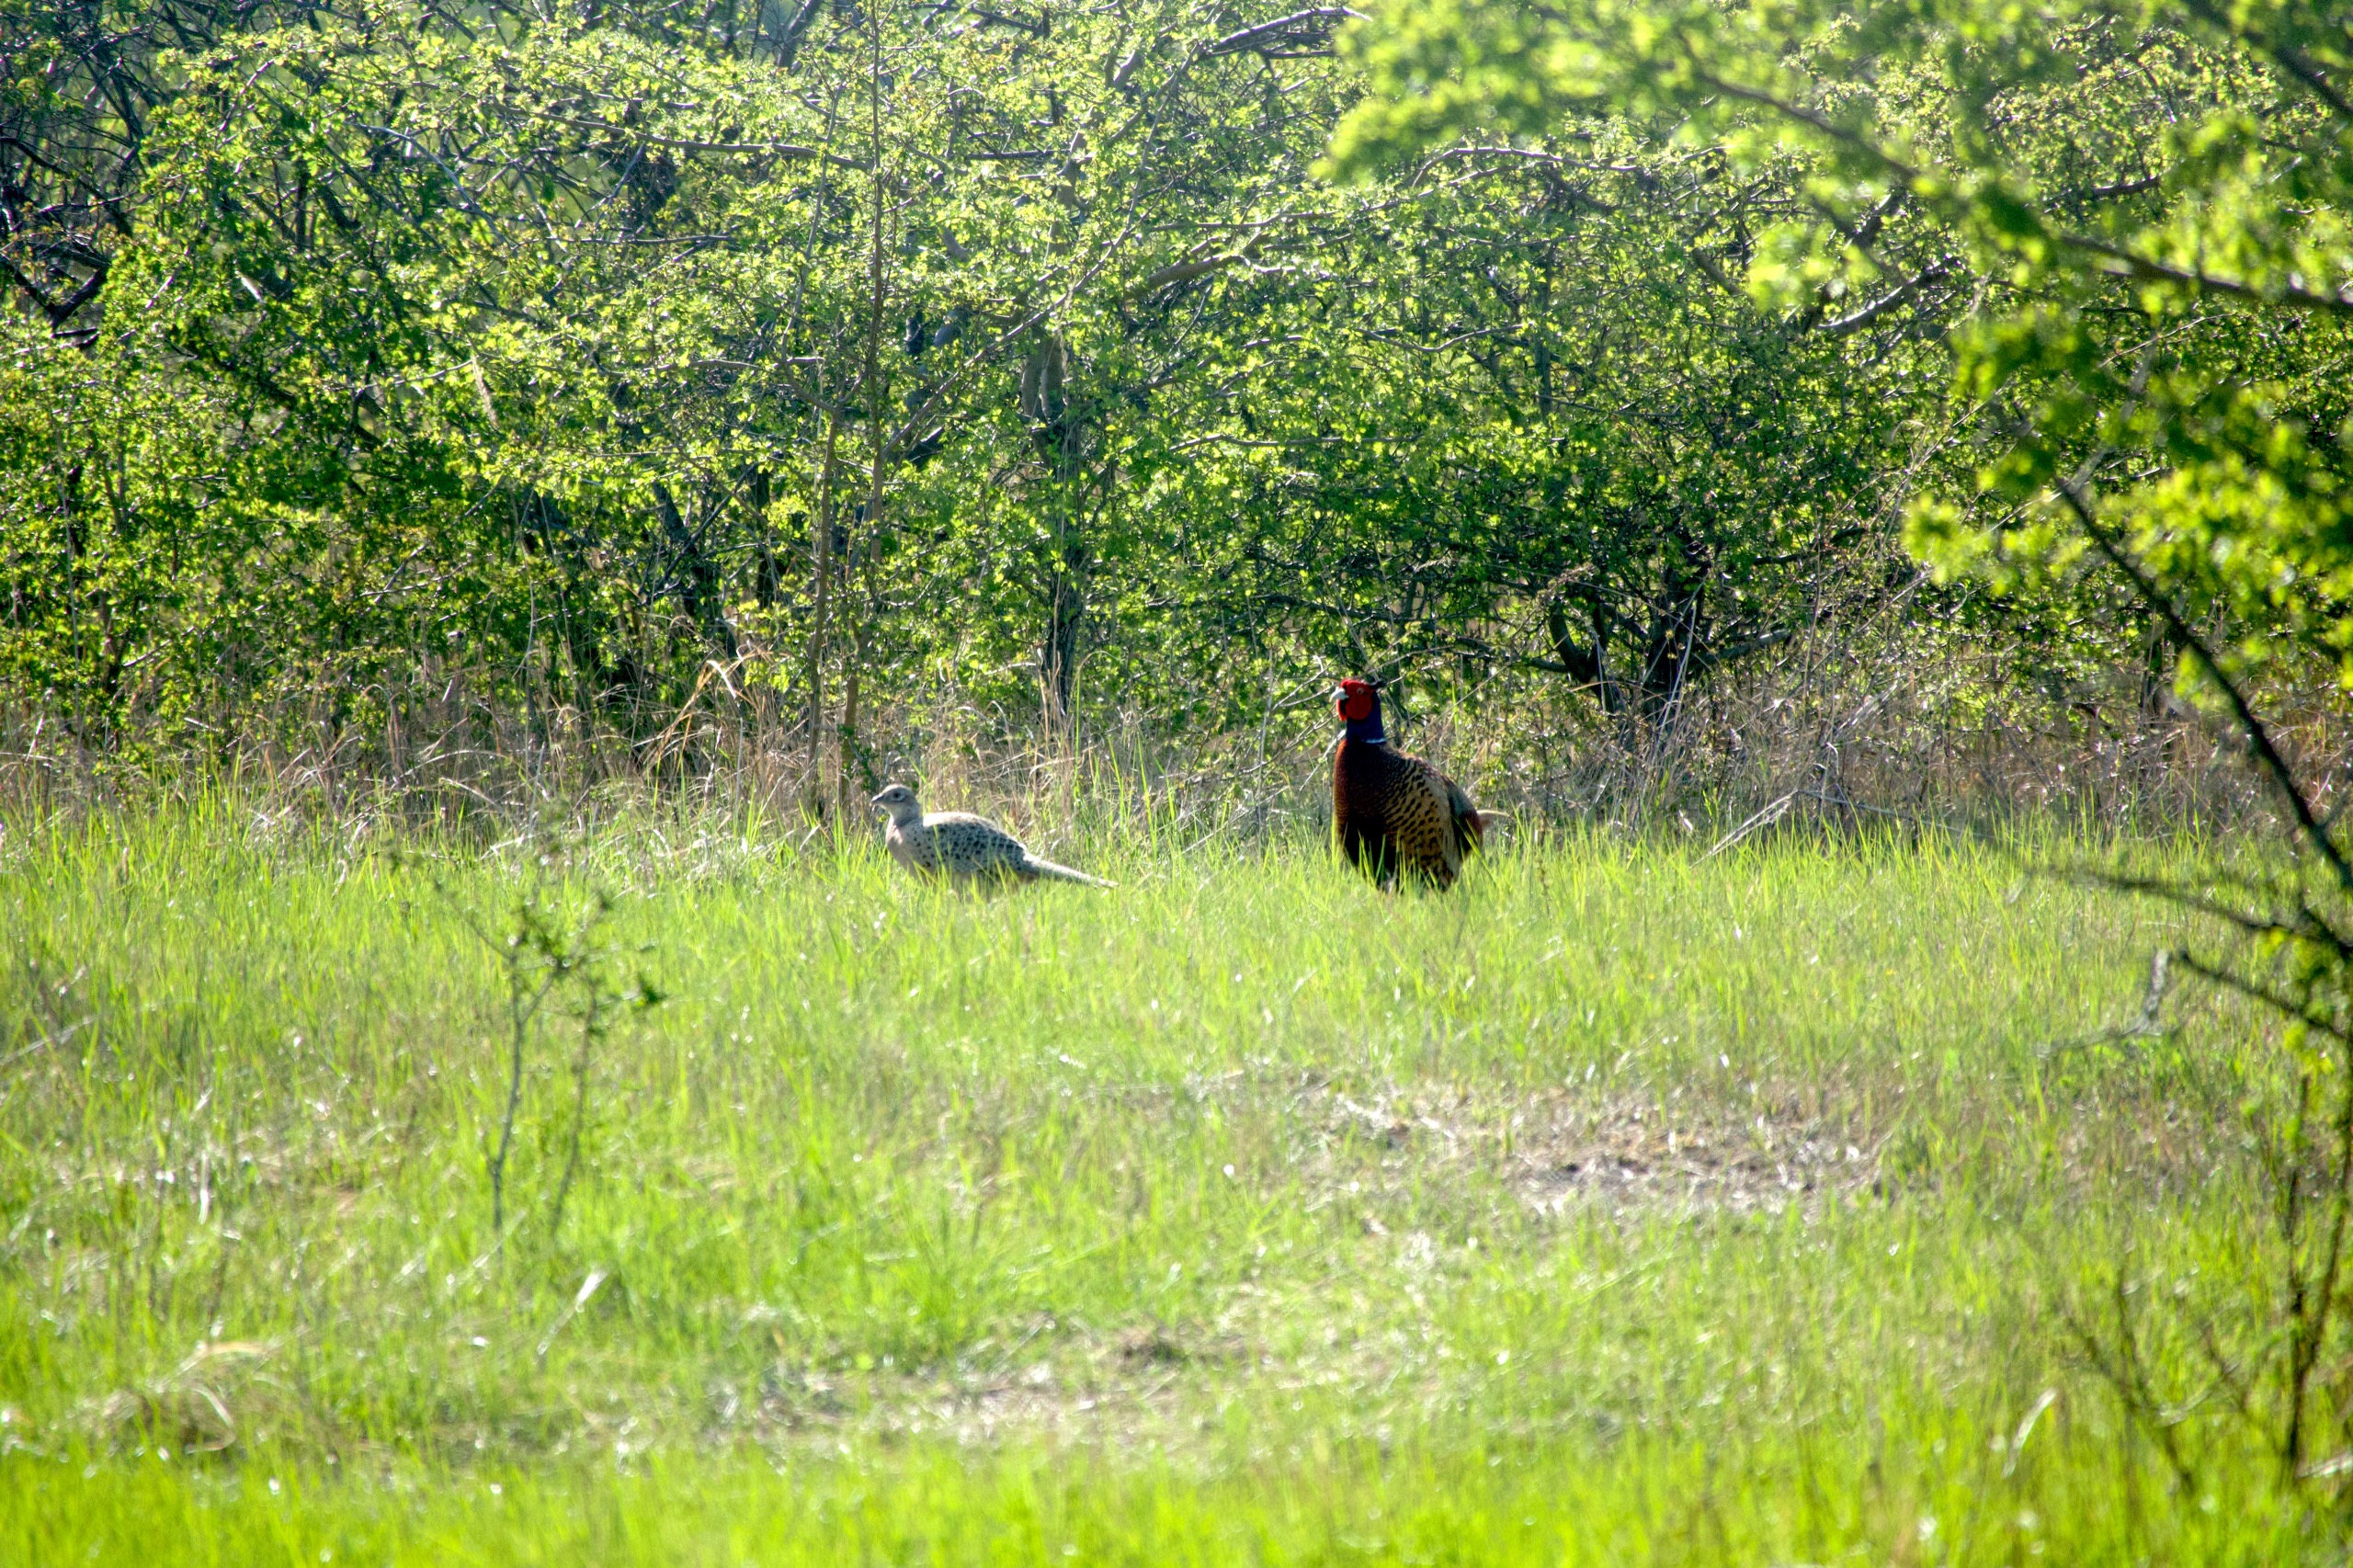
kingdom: Animalia
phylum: Chordata
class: Aves
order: Galliformes
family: Phasianidae
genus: Phasianus
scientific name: Phasianus colchicus
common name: Fasan
